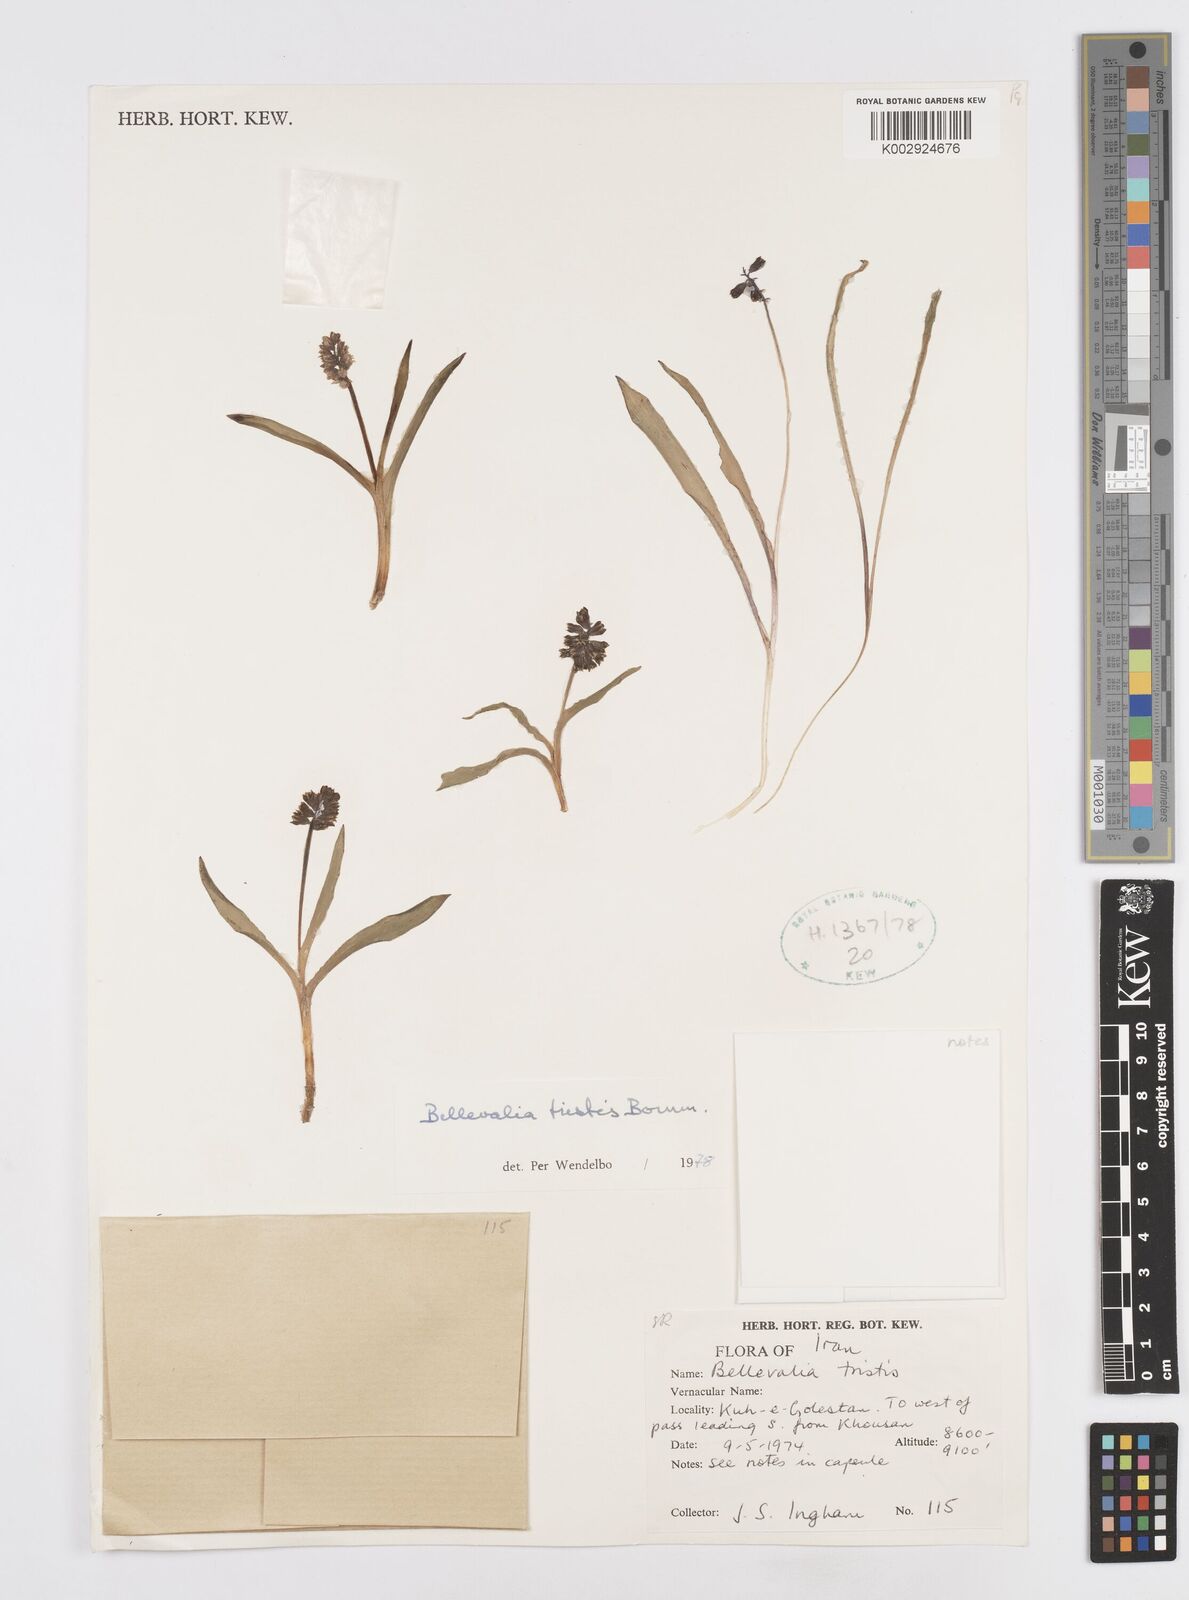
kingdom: Plantae
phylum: Tracheophyta
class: Liliopsida
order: Asparagales
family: Asparagaceae
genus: Bellevalia
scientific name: Bellevalia tristis
